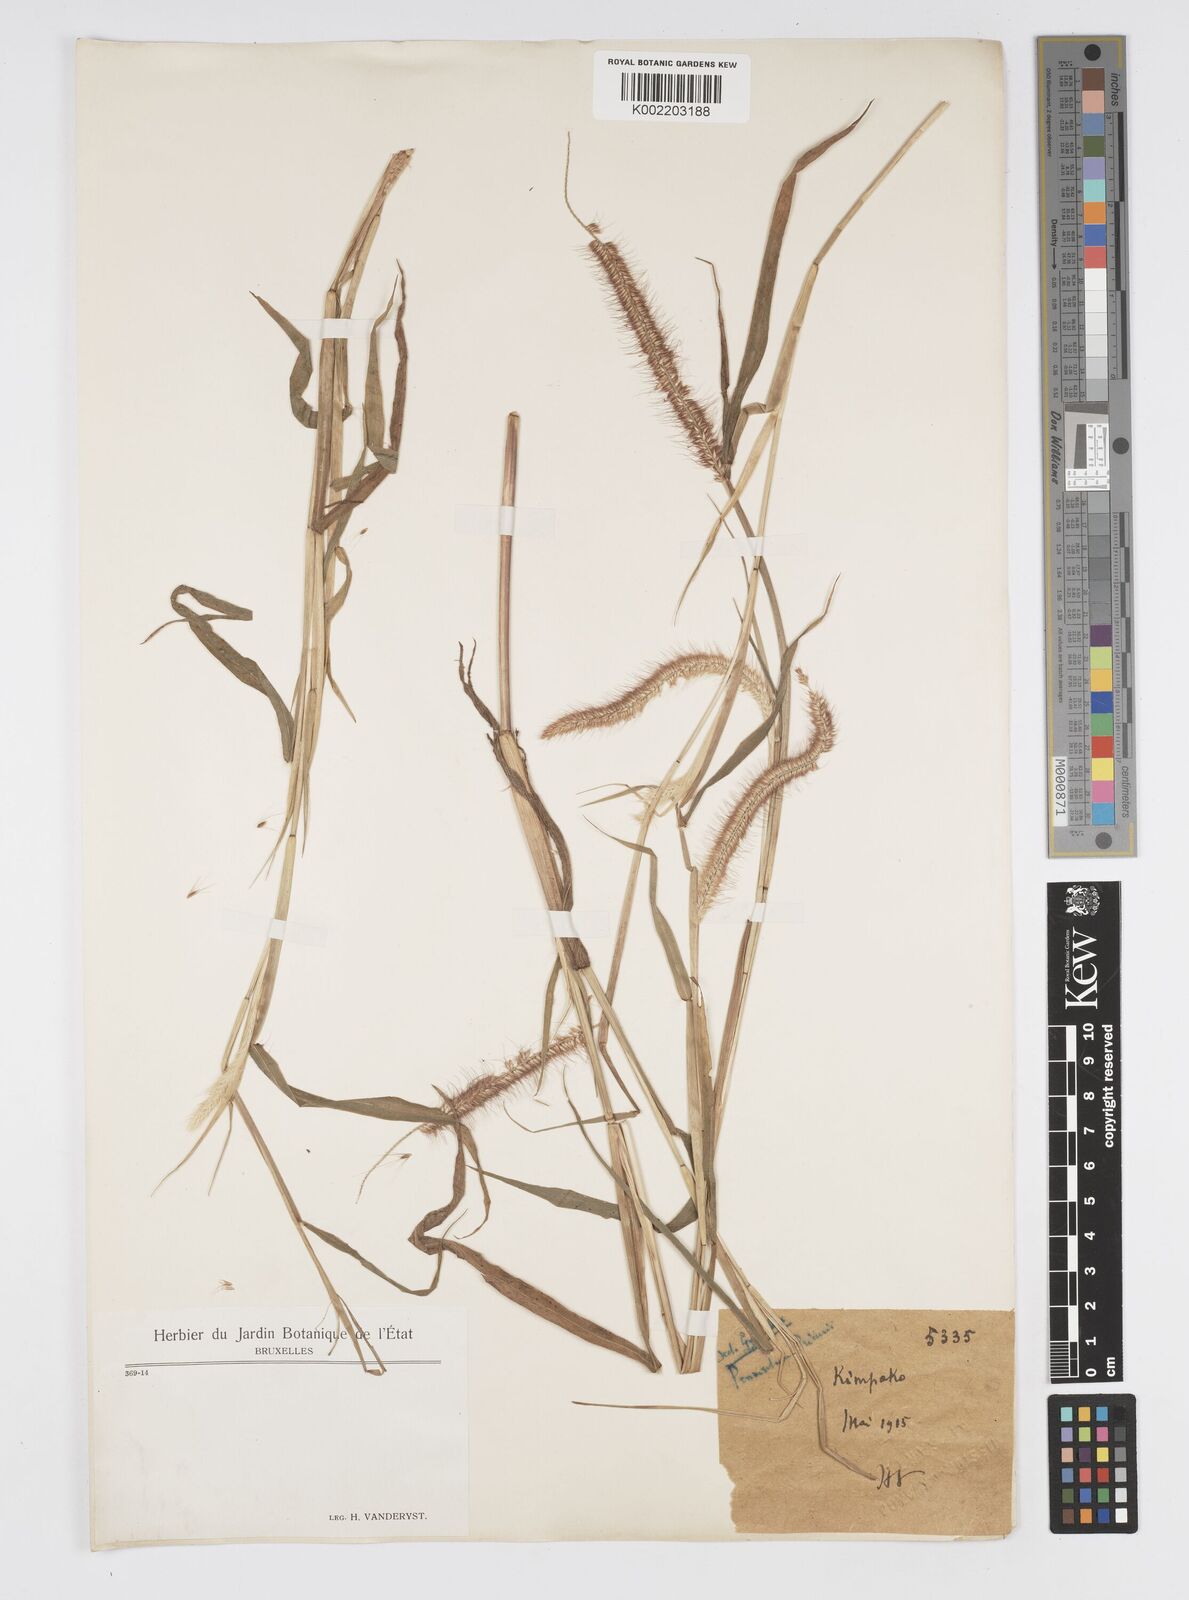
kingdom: Plantae
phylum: Tracheophyta
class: Liliopsida
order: Poales
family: Poaceae
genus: Cenchrus
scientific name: Cenchrus hordeoides
